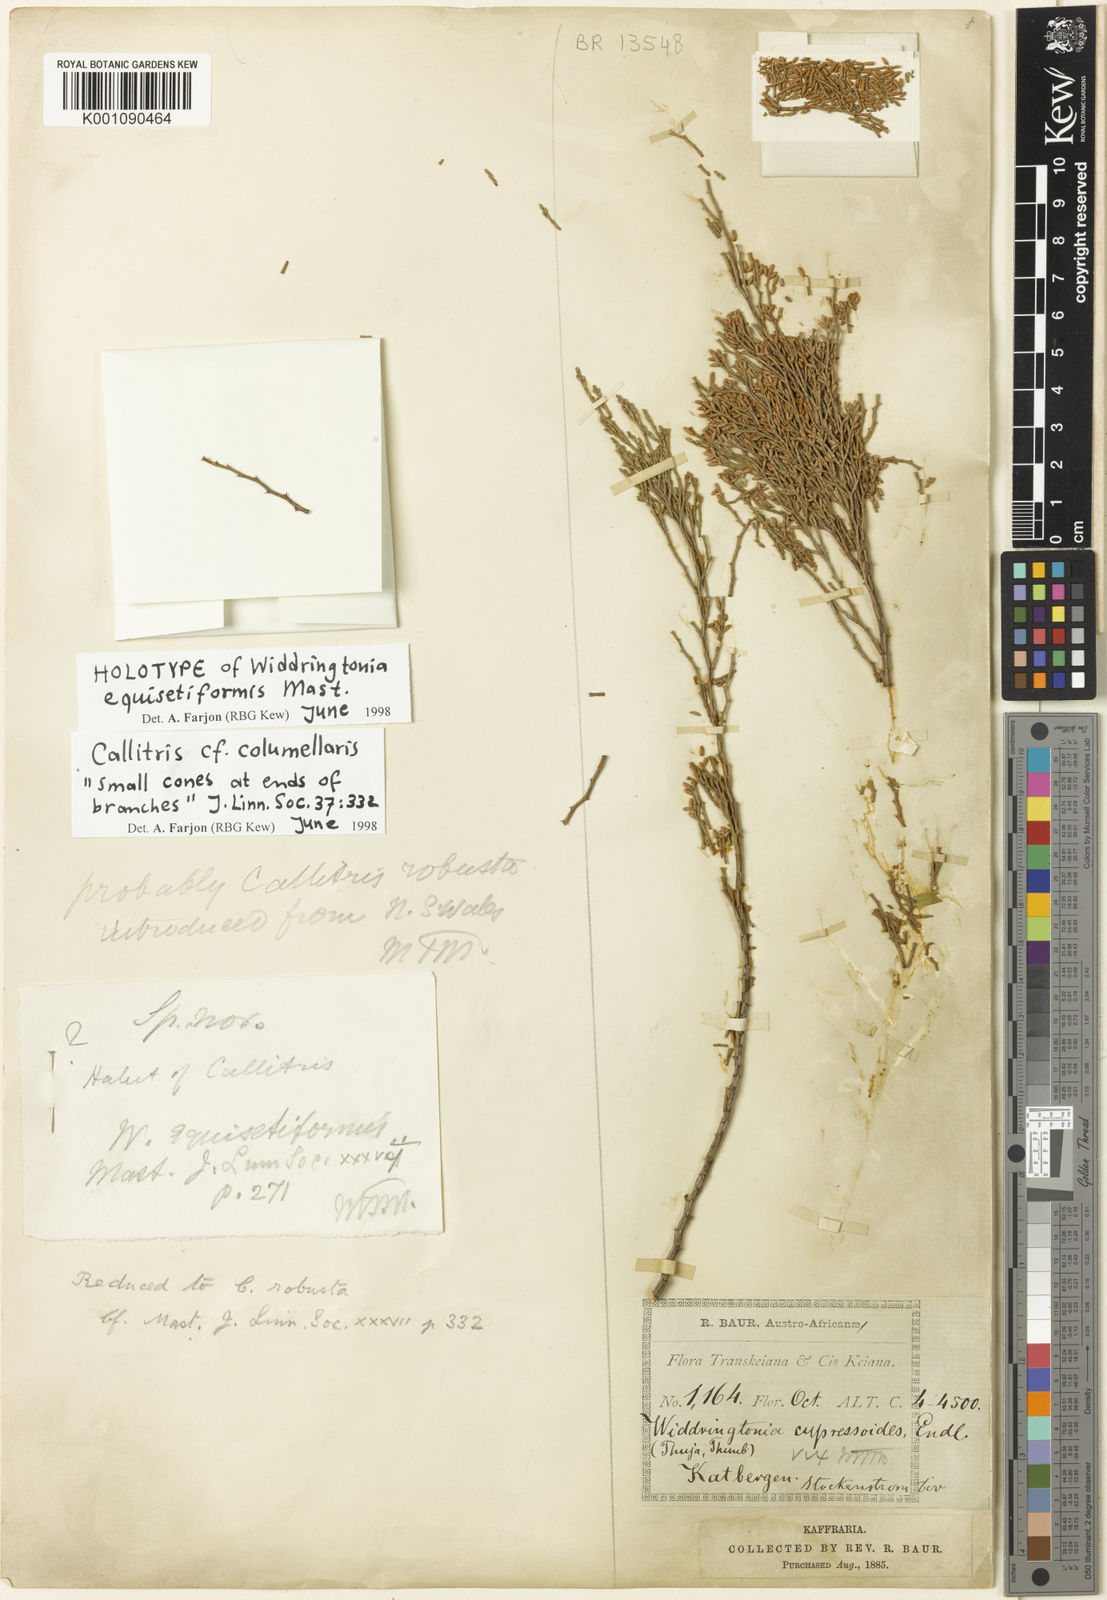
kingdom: Plantae
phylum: Tracheophyta
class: Pinopsida
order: Pinales
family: Cupressaceae
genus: Callitris
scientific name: Callitris columellaris
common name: White cypress-pine
